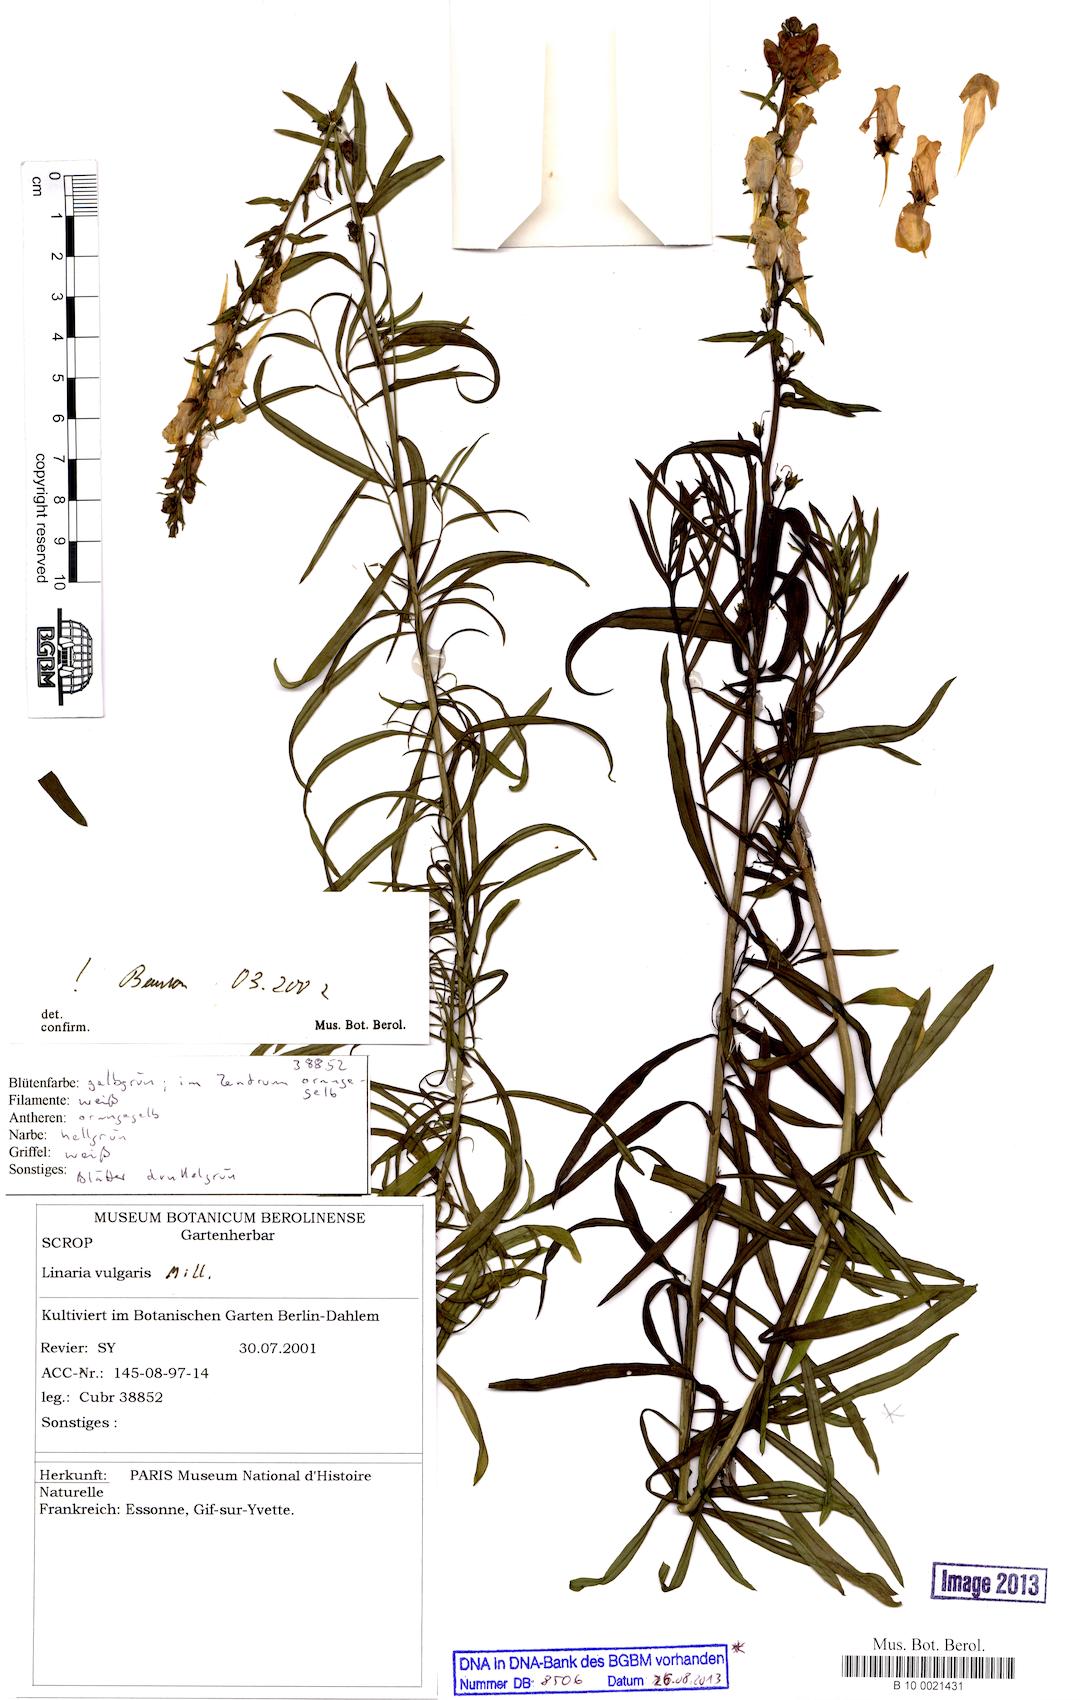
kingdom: Plantae
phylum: Tracheophyta
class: Magnoliopsida
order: Lamiales
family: Plantaginaceae
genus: Linaria
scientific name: Linaria vulgaris
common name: Butter and eggs
